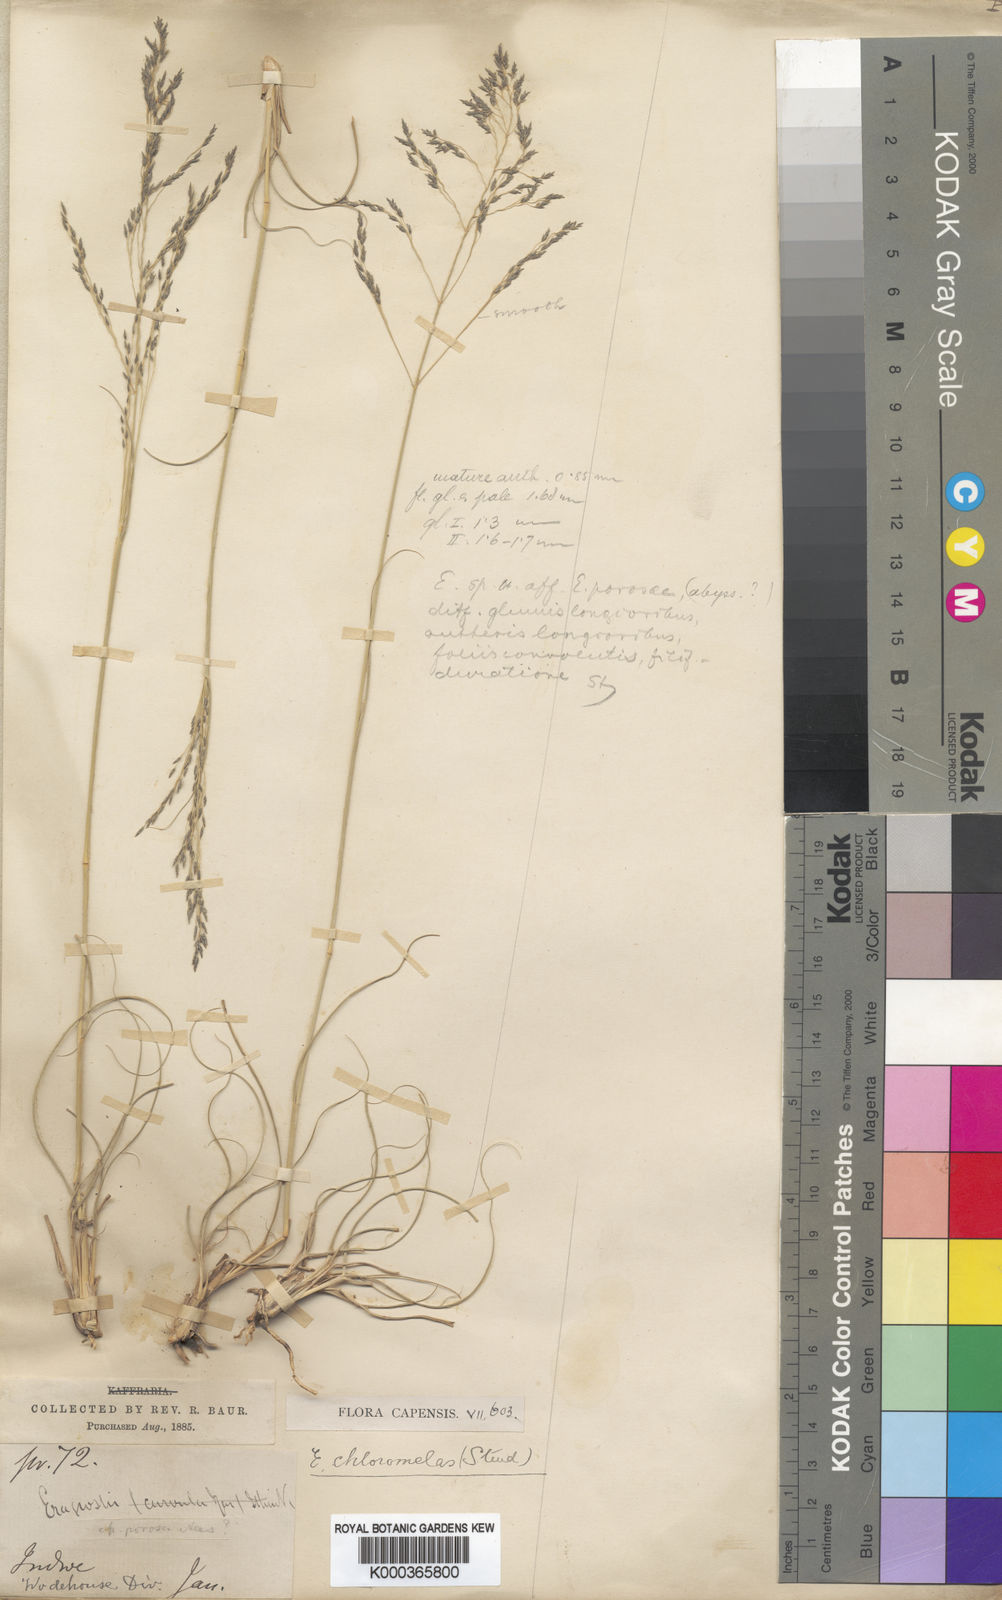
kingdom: Plantae
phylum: Tracheophyta
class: Liliopsida
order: Poales
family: Poaceae
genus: Eragrostis
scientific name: Eragrostis curvula
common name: African love-grass
